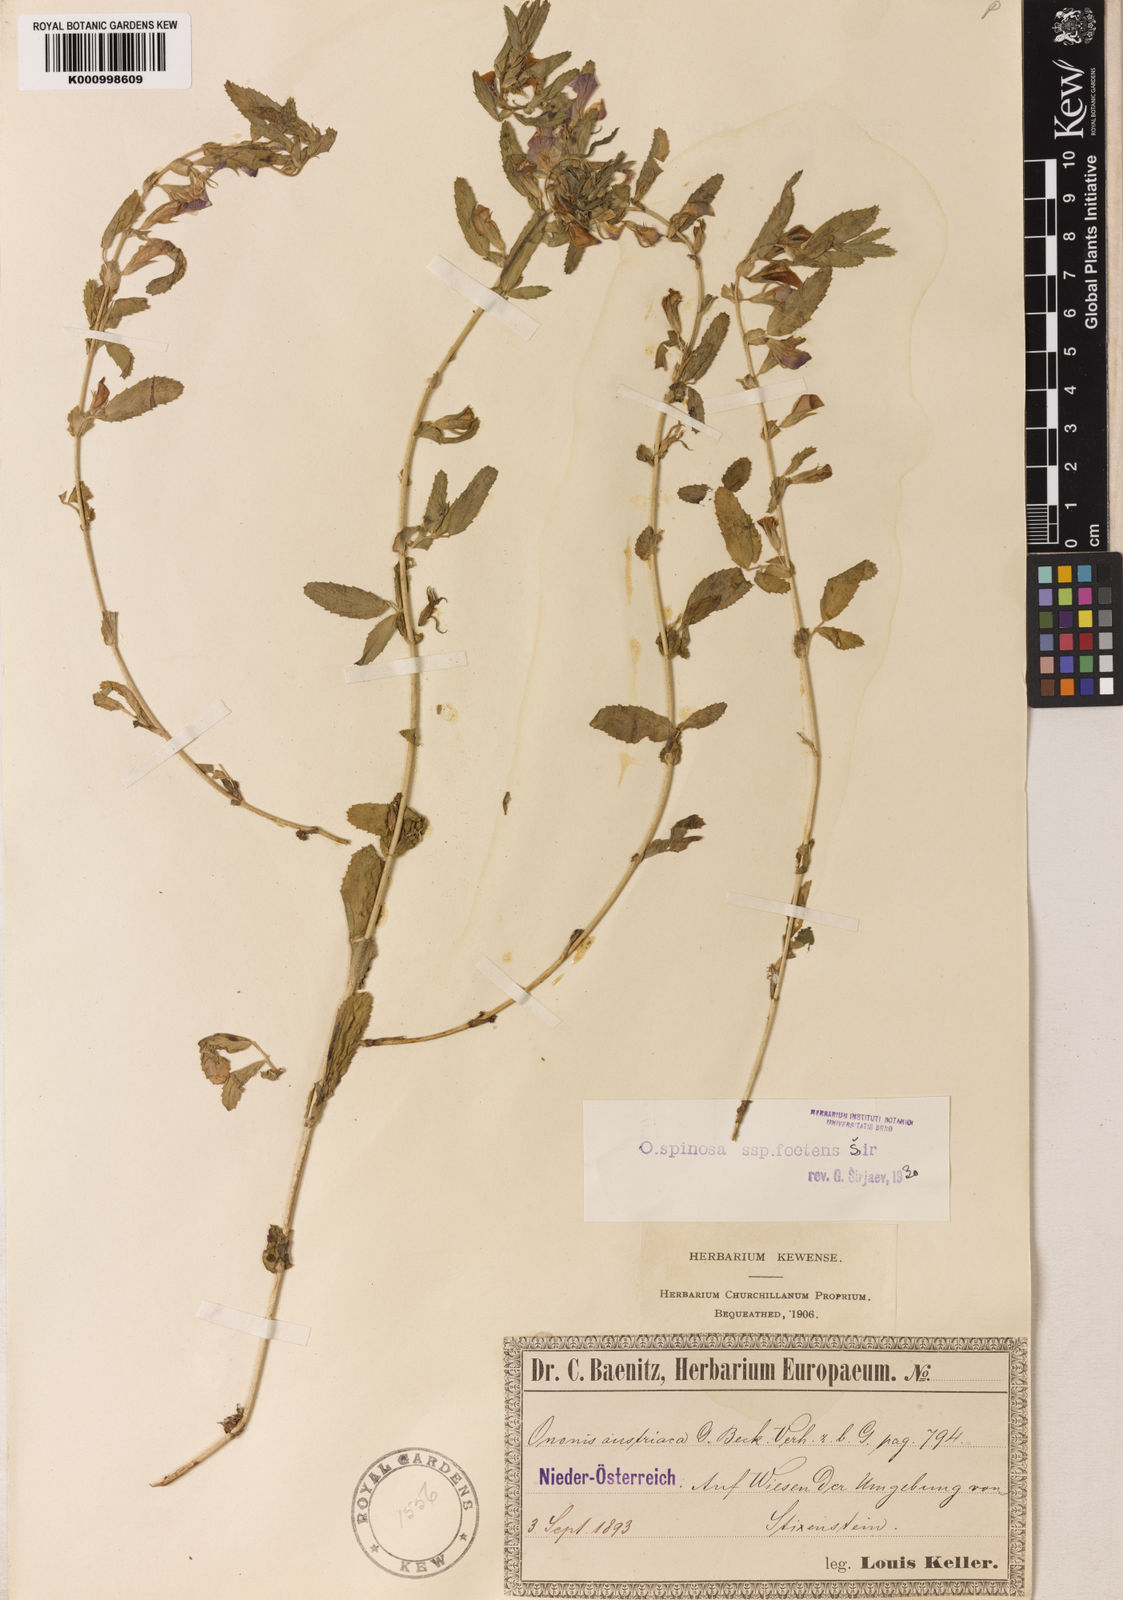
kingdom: Plantae
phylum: Tracheophyta
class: Magnoliopsida
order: Fabales
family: Fabaceae
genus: Ononis
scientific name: Ononis spinosa
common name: Spiny restharrow
